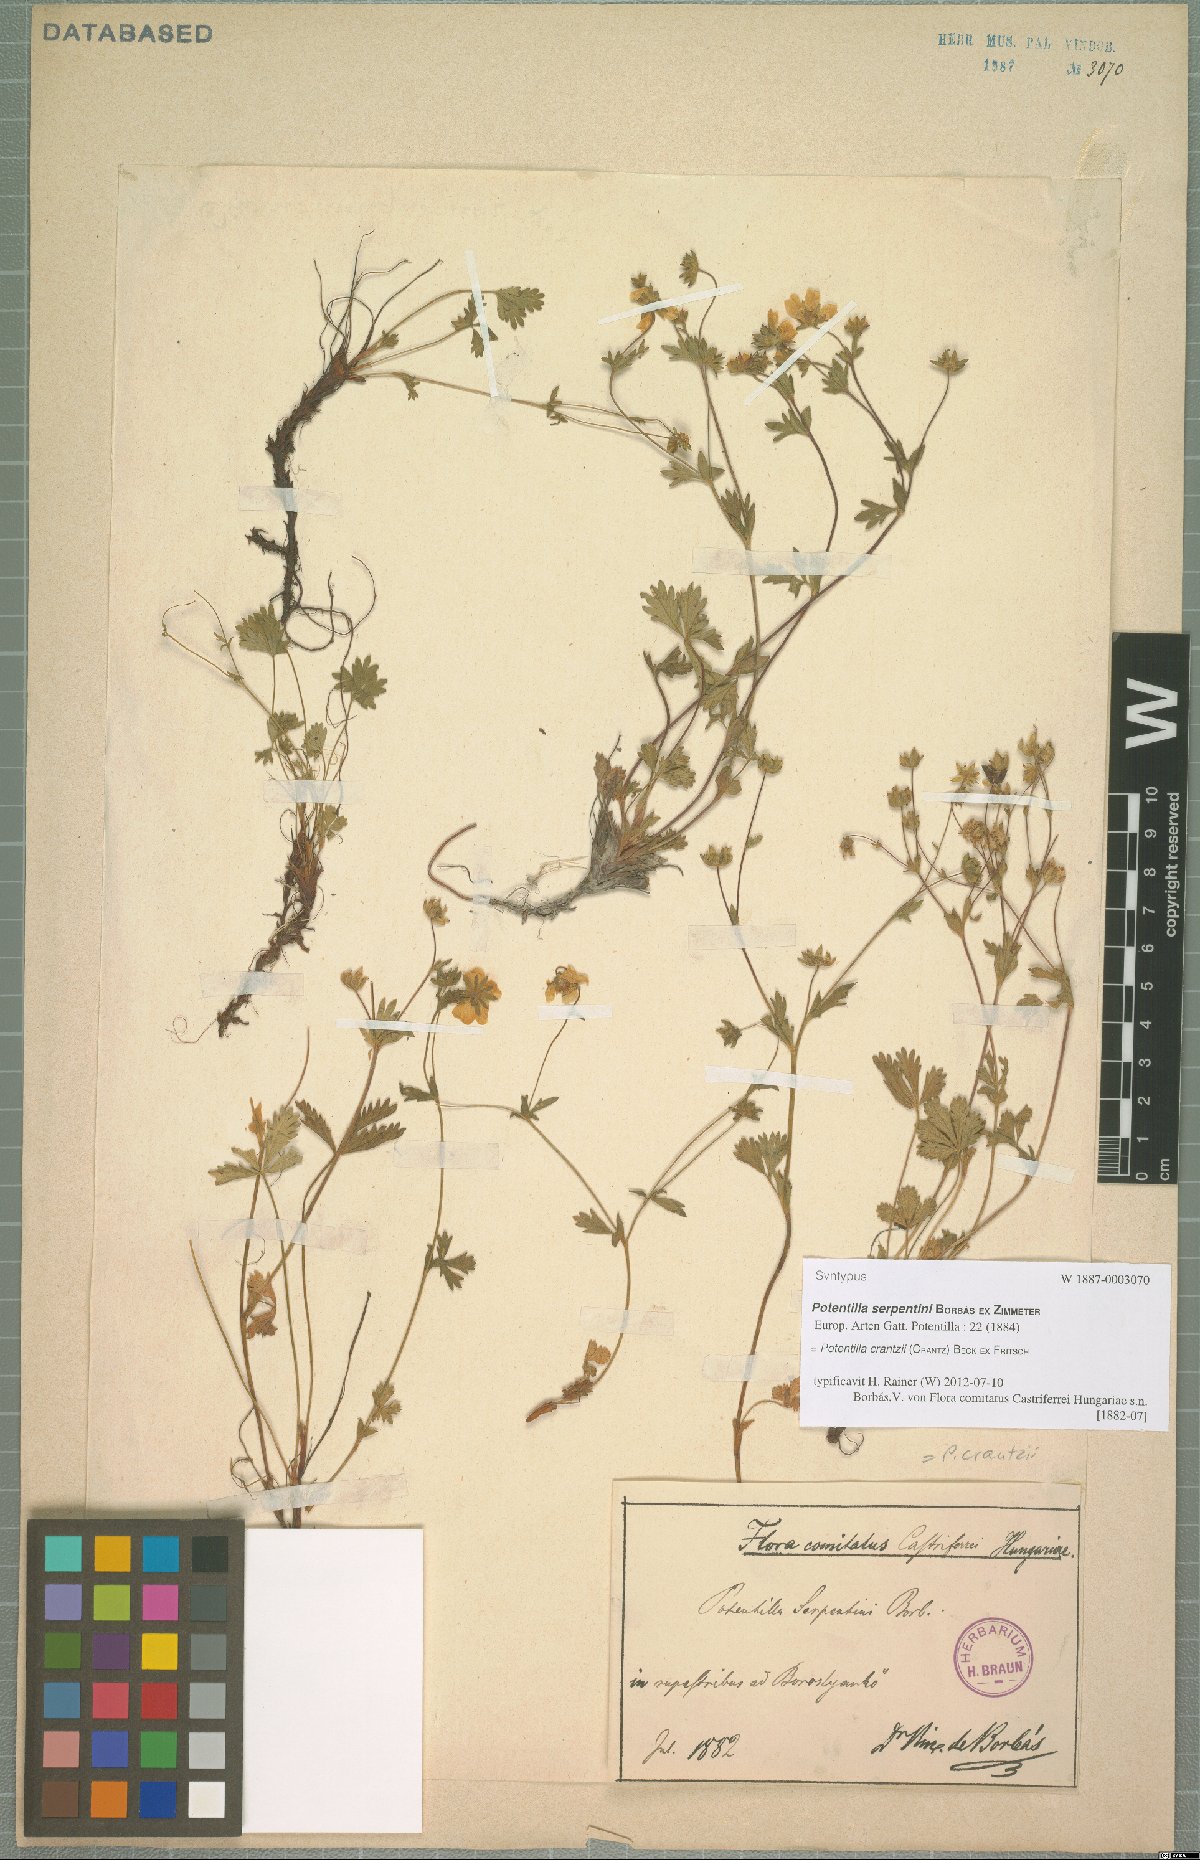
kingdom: Plantae
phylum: Tracheophyta
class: Magnoliopsida
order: Rosales
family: Rosaceae
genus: Potentilla
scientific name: Potentilla crantzii
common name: Alpine cinquefoil
